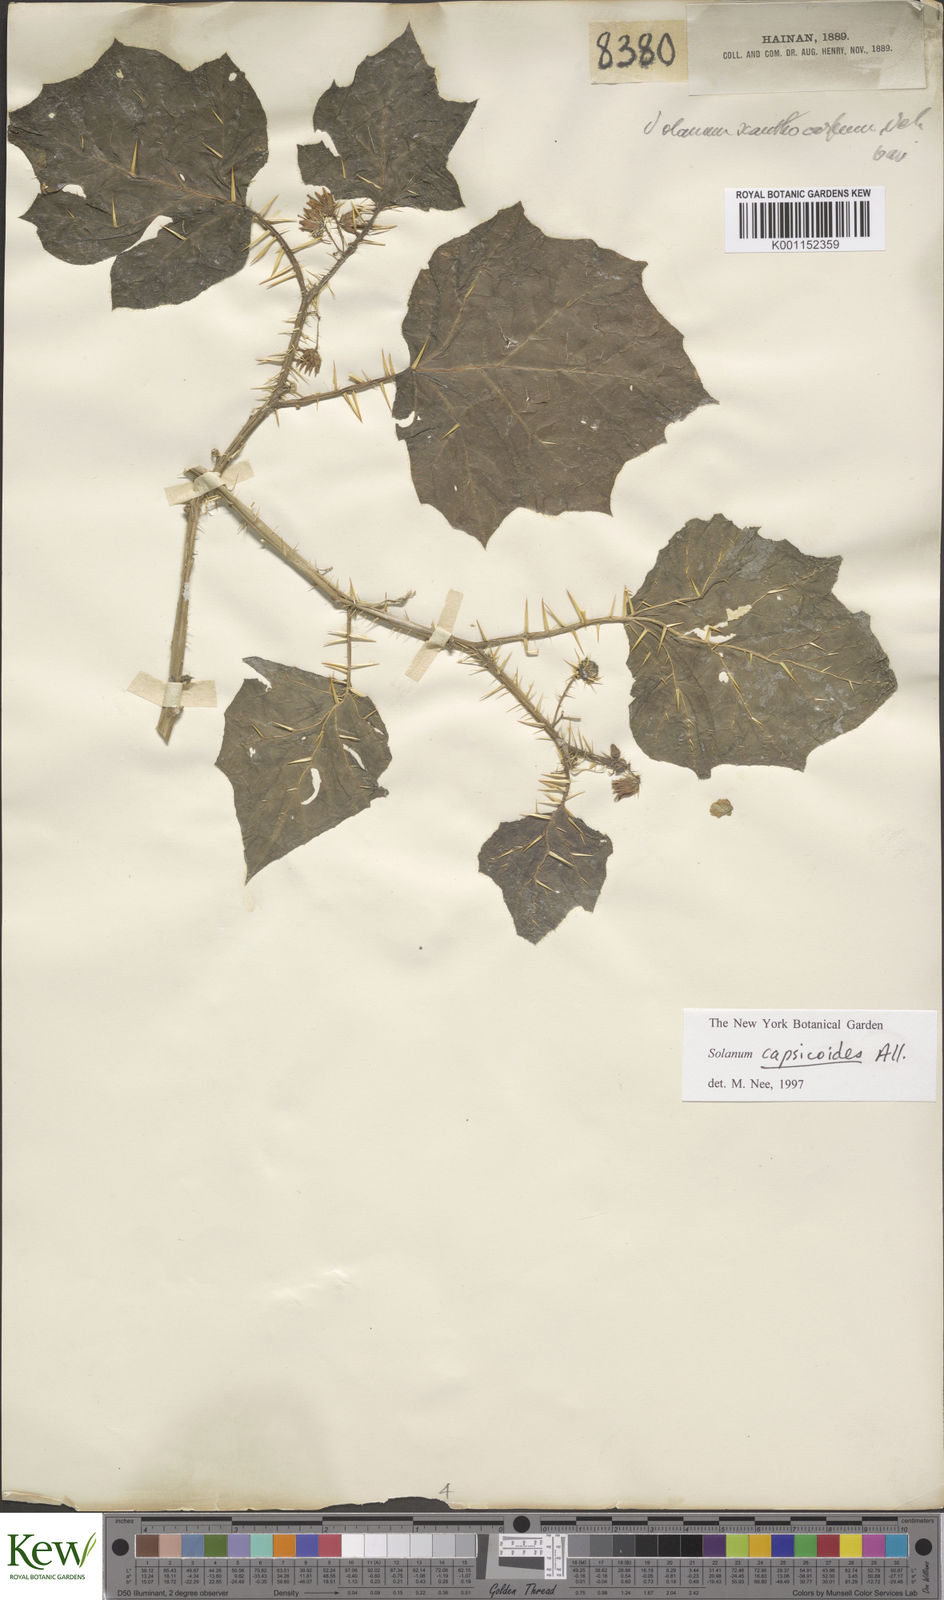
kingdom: Plantae
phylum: Tracheophyta
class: Magnoliopsida
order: Solanales
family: Solanaceae
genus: Solanum
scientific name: Solanum capsicoides
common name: Cockroach berry
